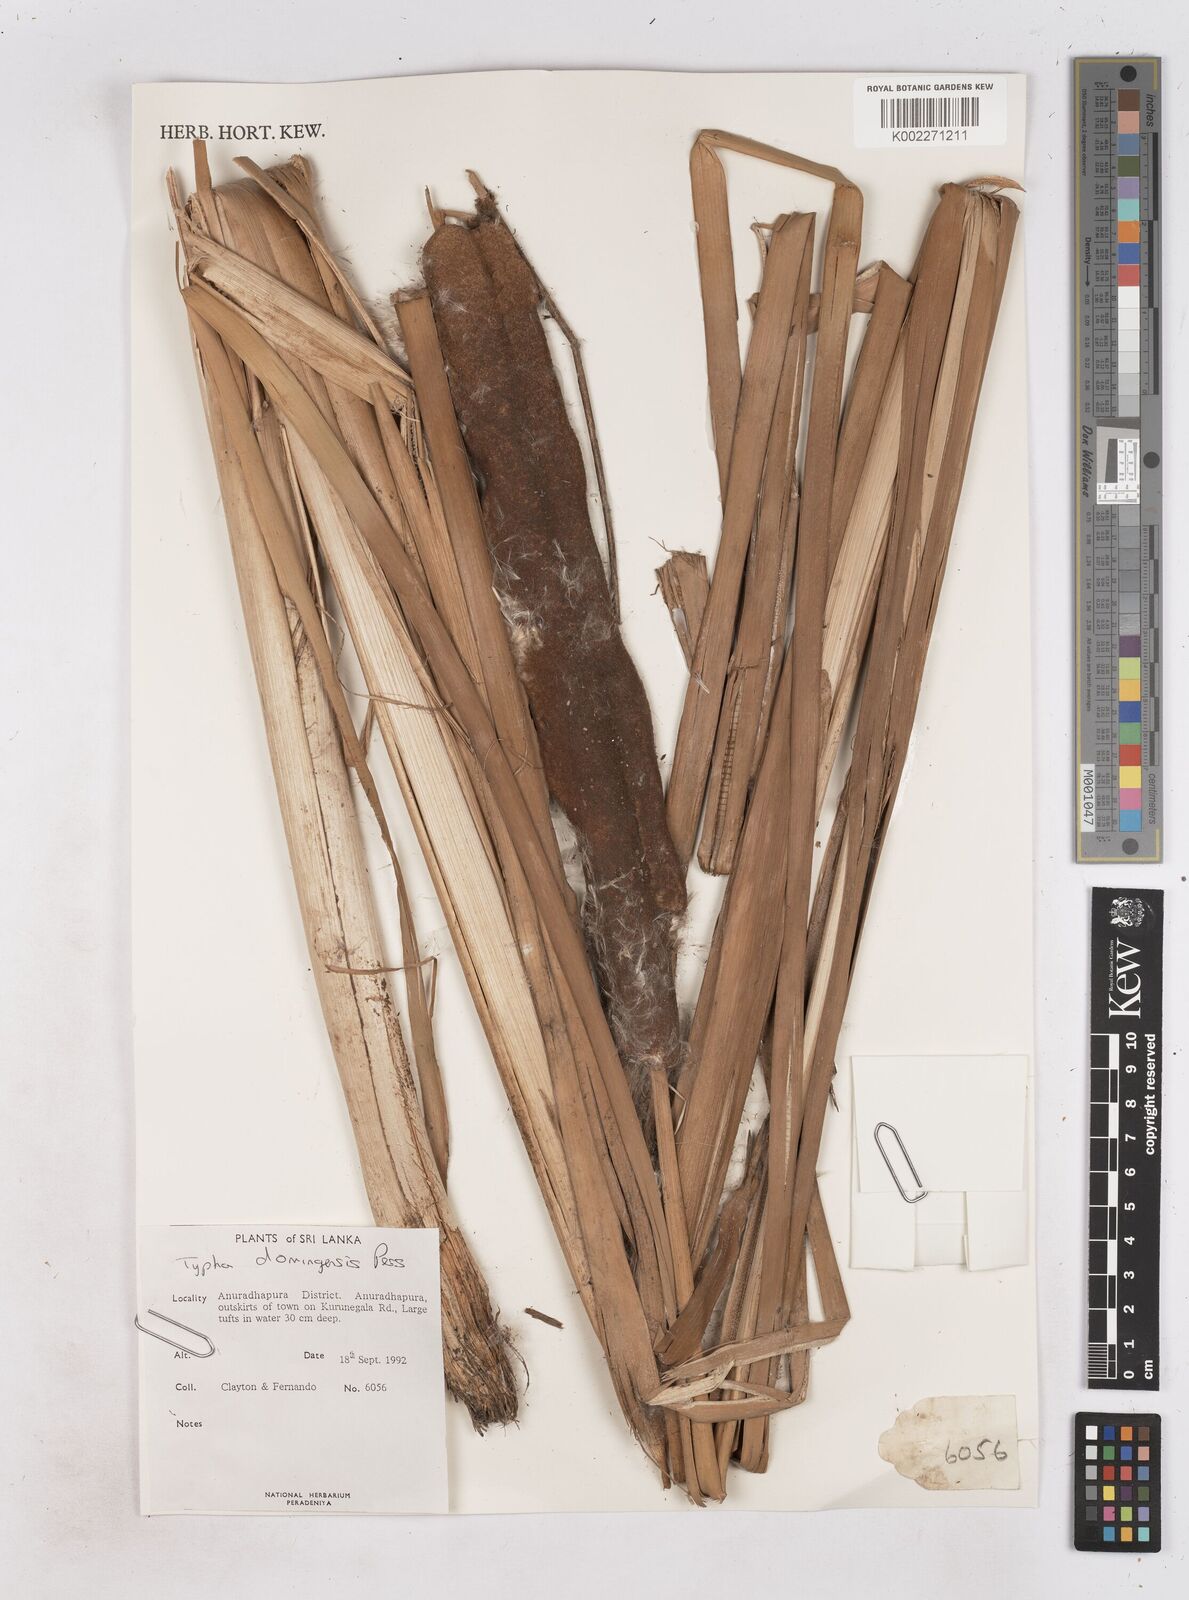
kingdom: Plantae
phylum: Tracheophyta
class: Liliopsida
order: Poales
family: Typhaceae
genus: Typha
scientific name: Typha domingensis
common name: Southern cattail
